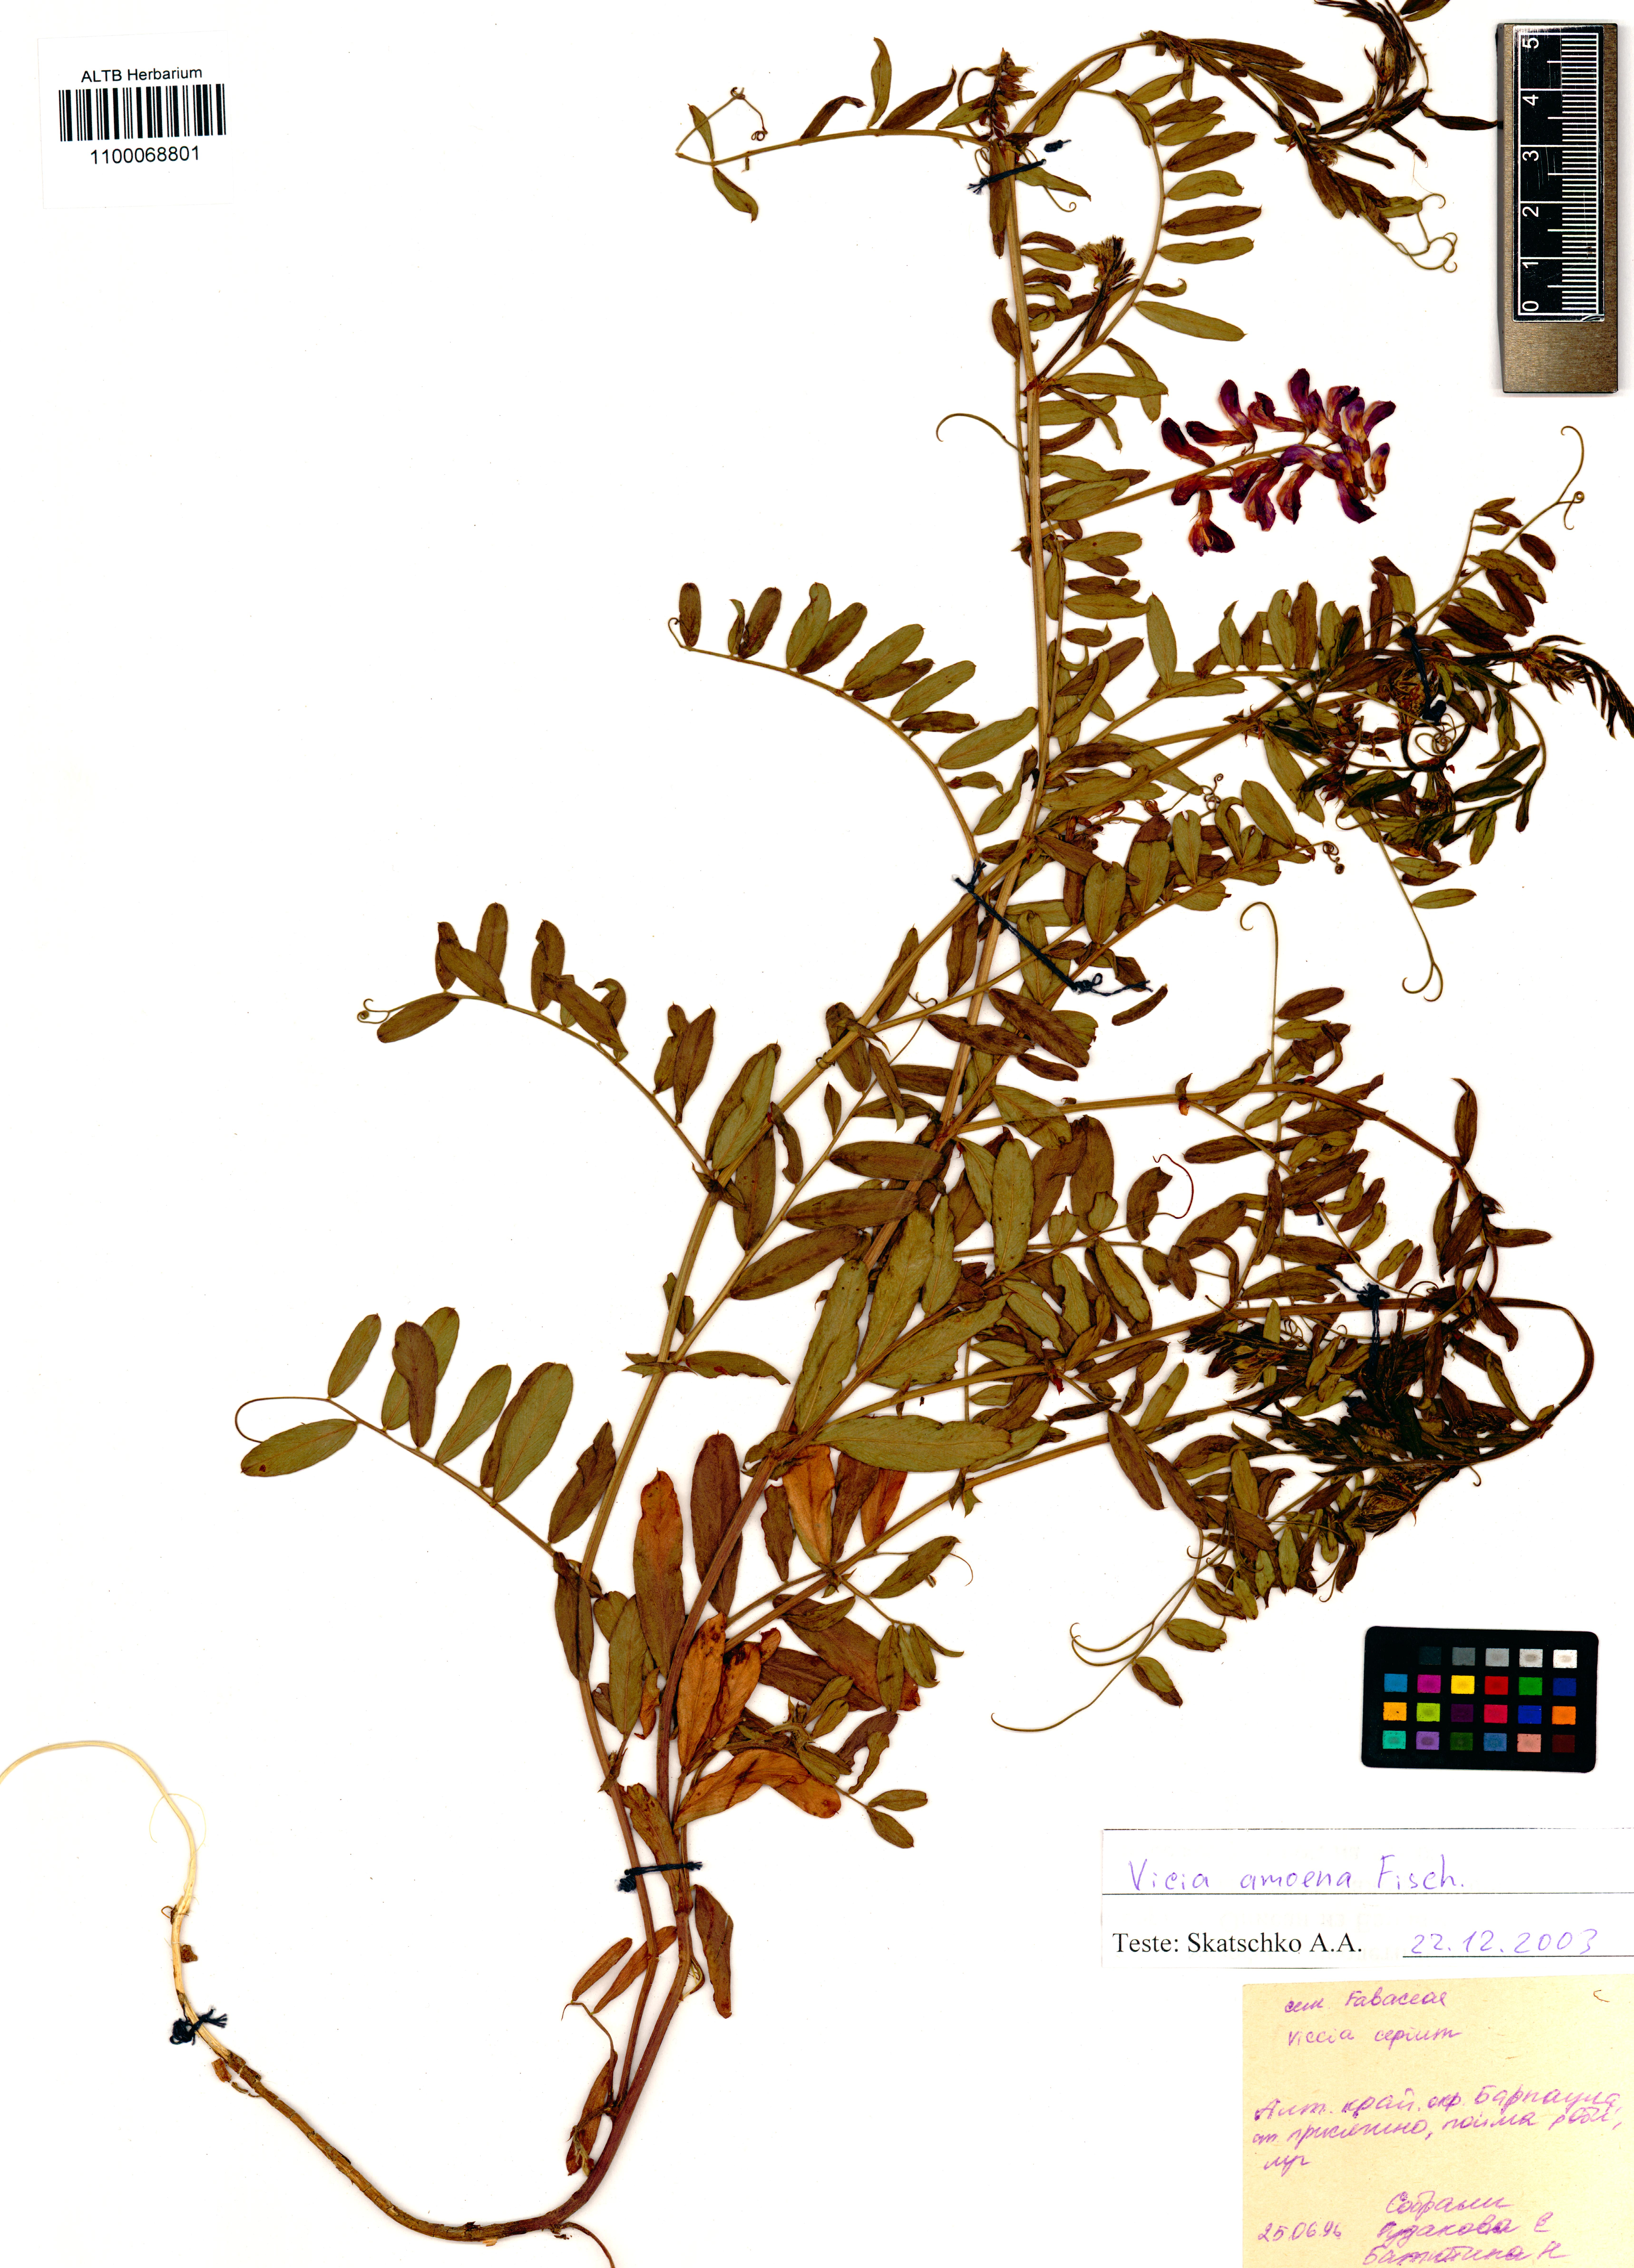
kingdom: Plantae
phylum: Tracheophyta
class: Magnoliopsida
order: Fabales
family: Fabaceae
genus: Vicia
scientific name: Vicia amoena
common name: Cheder ebs
